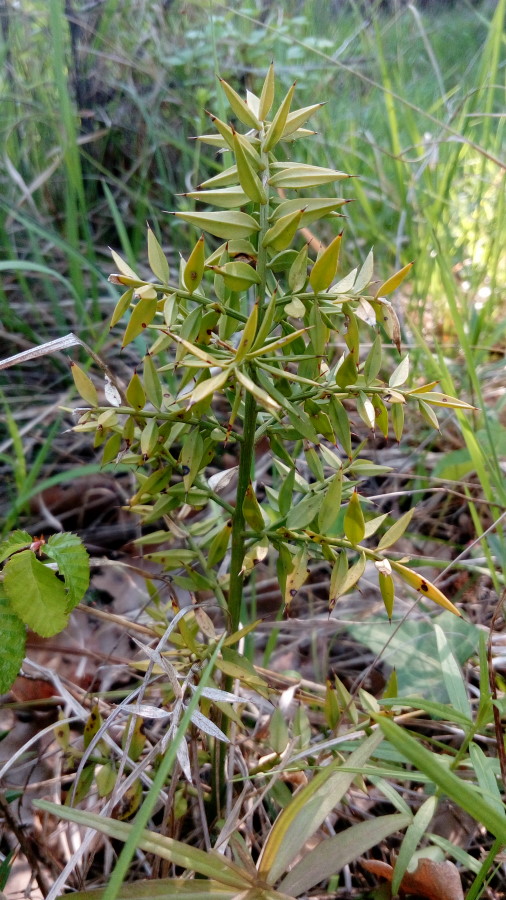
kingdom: Plantae
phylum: Tracheophyta
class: Liliopsida
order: Asparagales
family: Asparagaceae
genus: Ruscus
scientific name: Ruscus aculeatus
